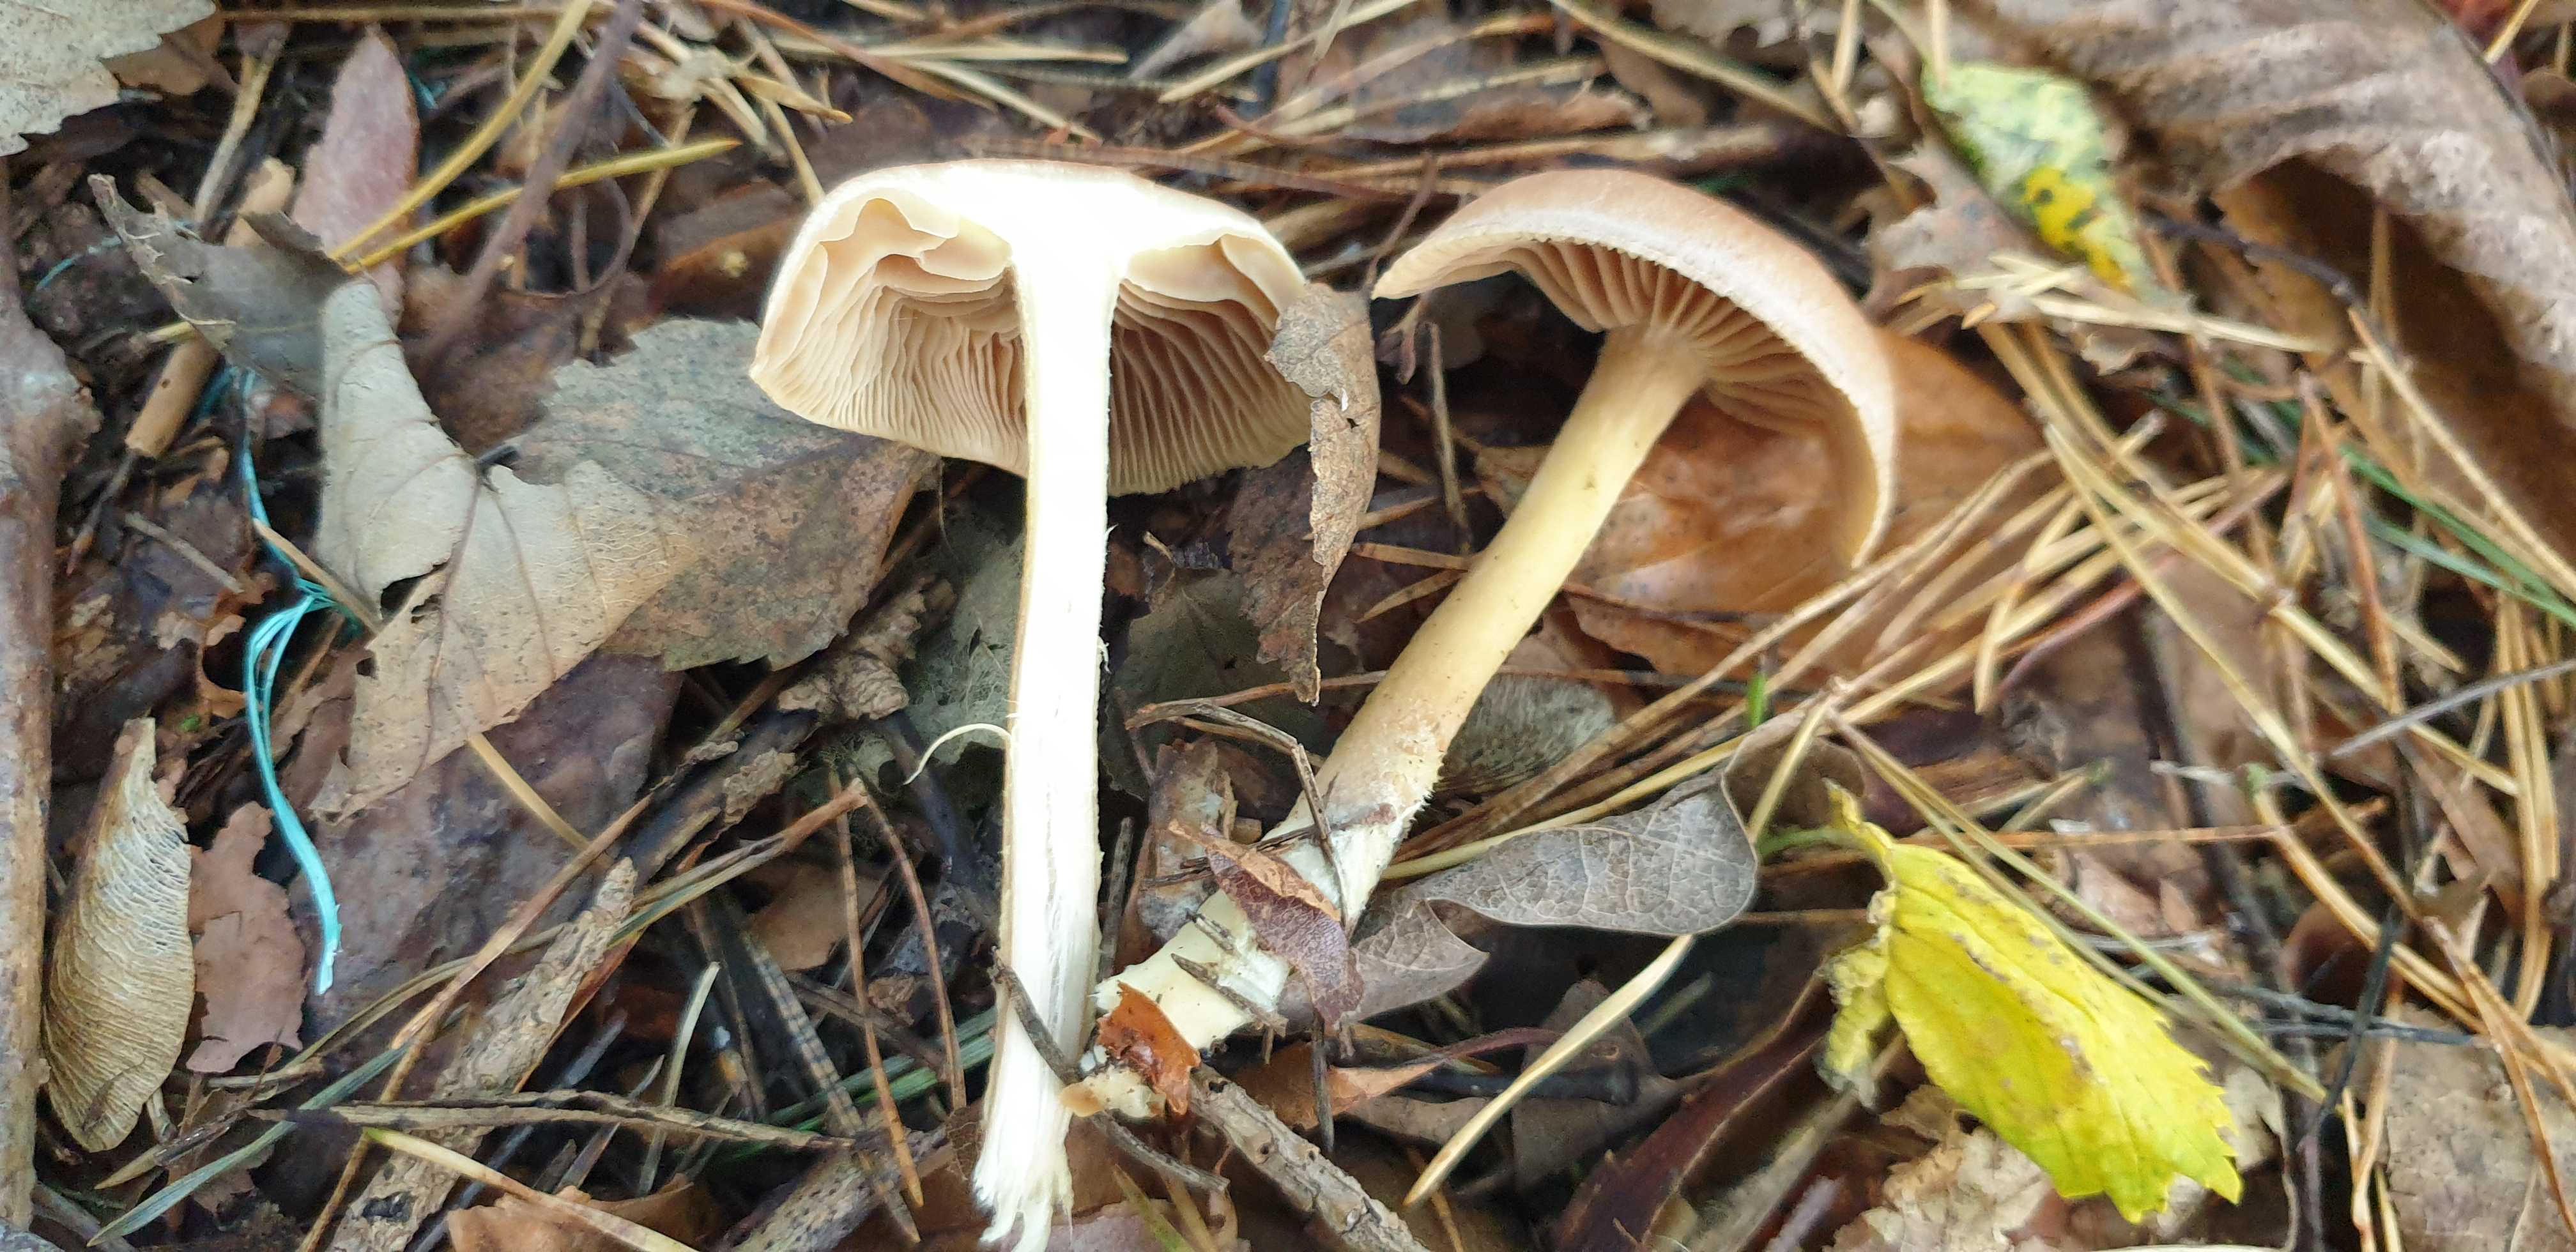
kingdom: Fungi
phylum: Basidiomycota
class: Agaricomycetes
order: Agaricales
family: Omphalotaceae
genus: Collybiopsis
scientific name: Collybiopsis peronata
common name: bestøvlet fladhat
